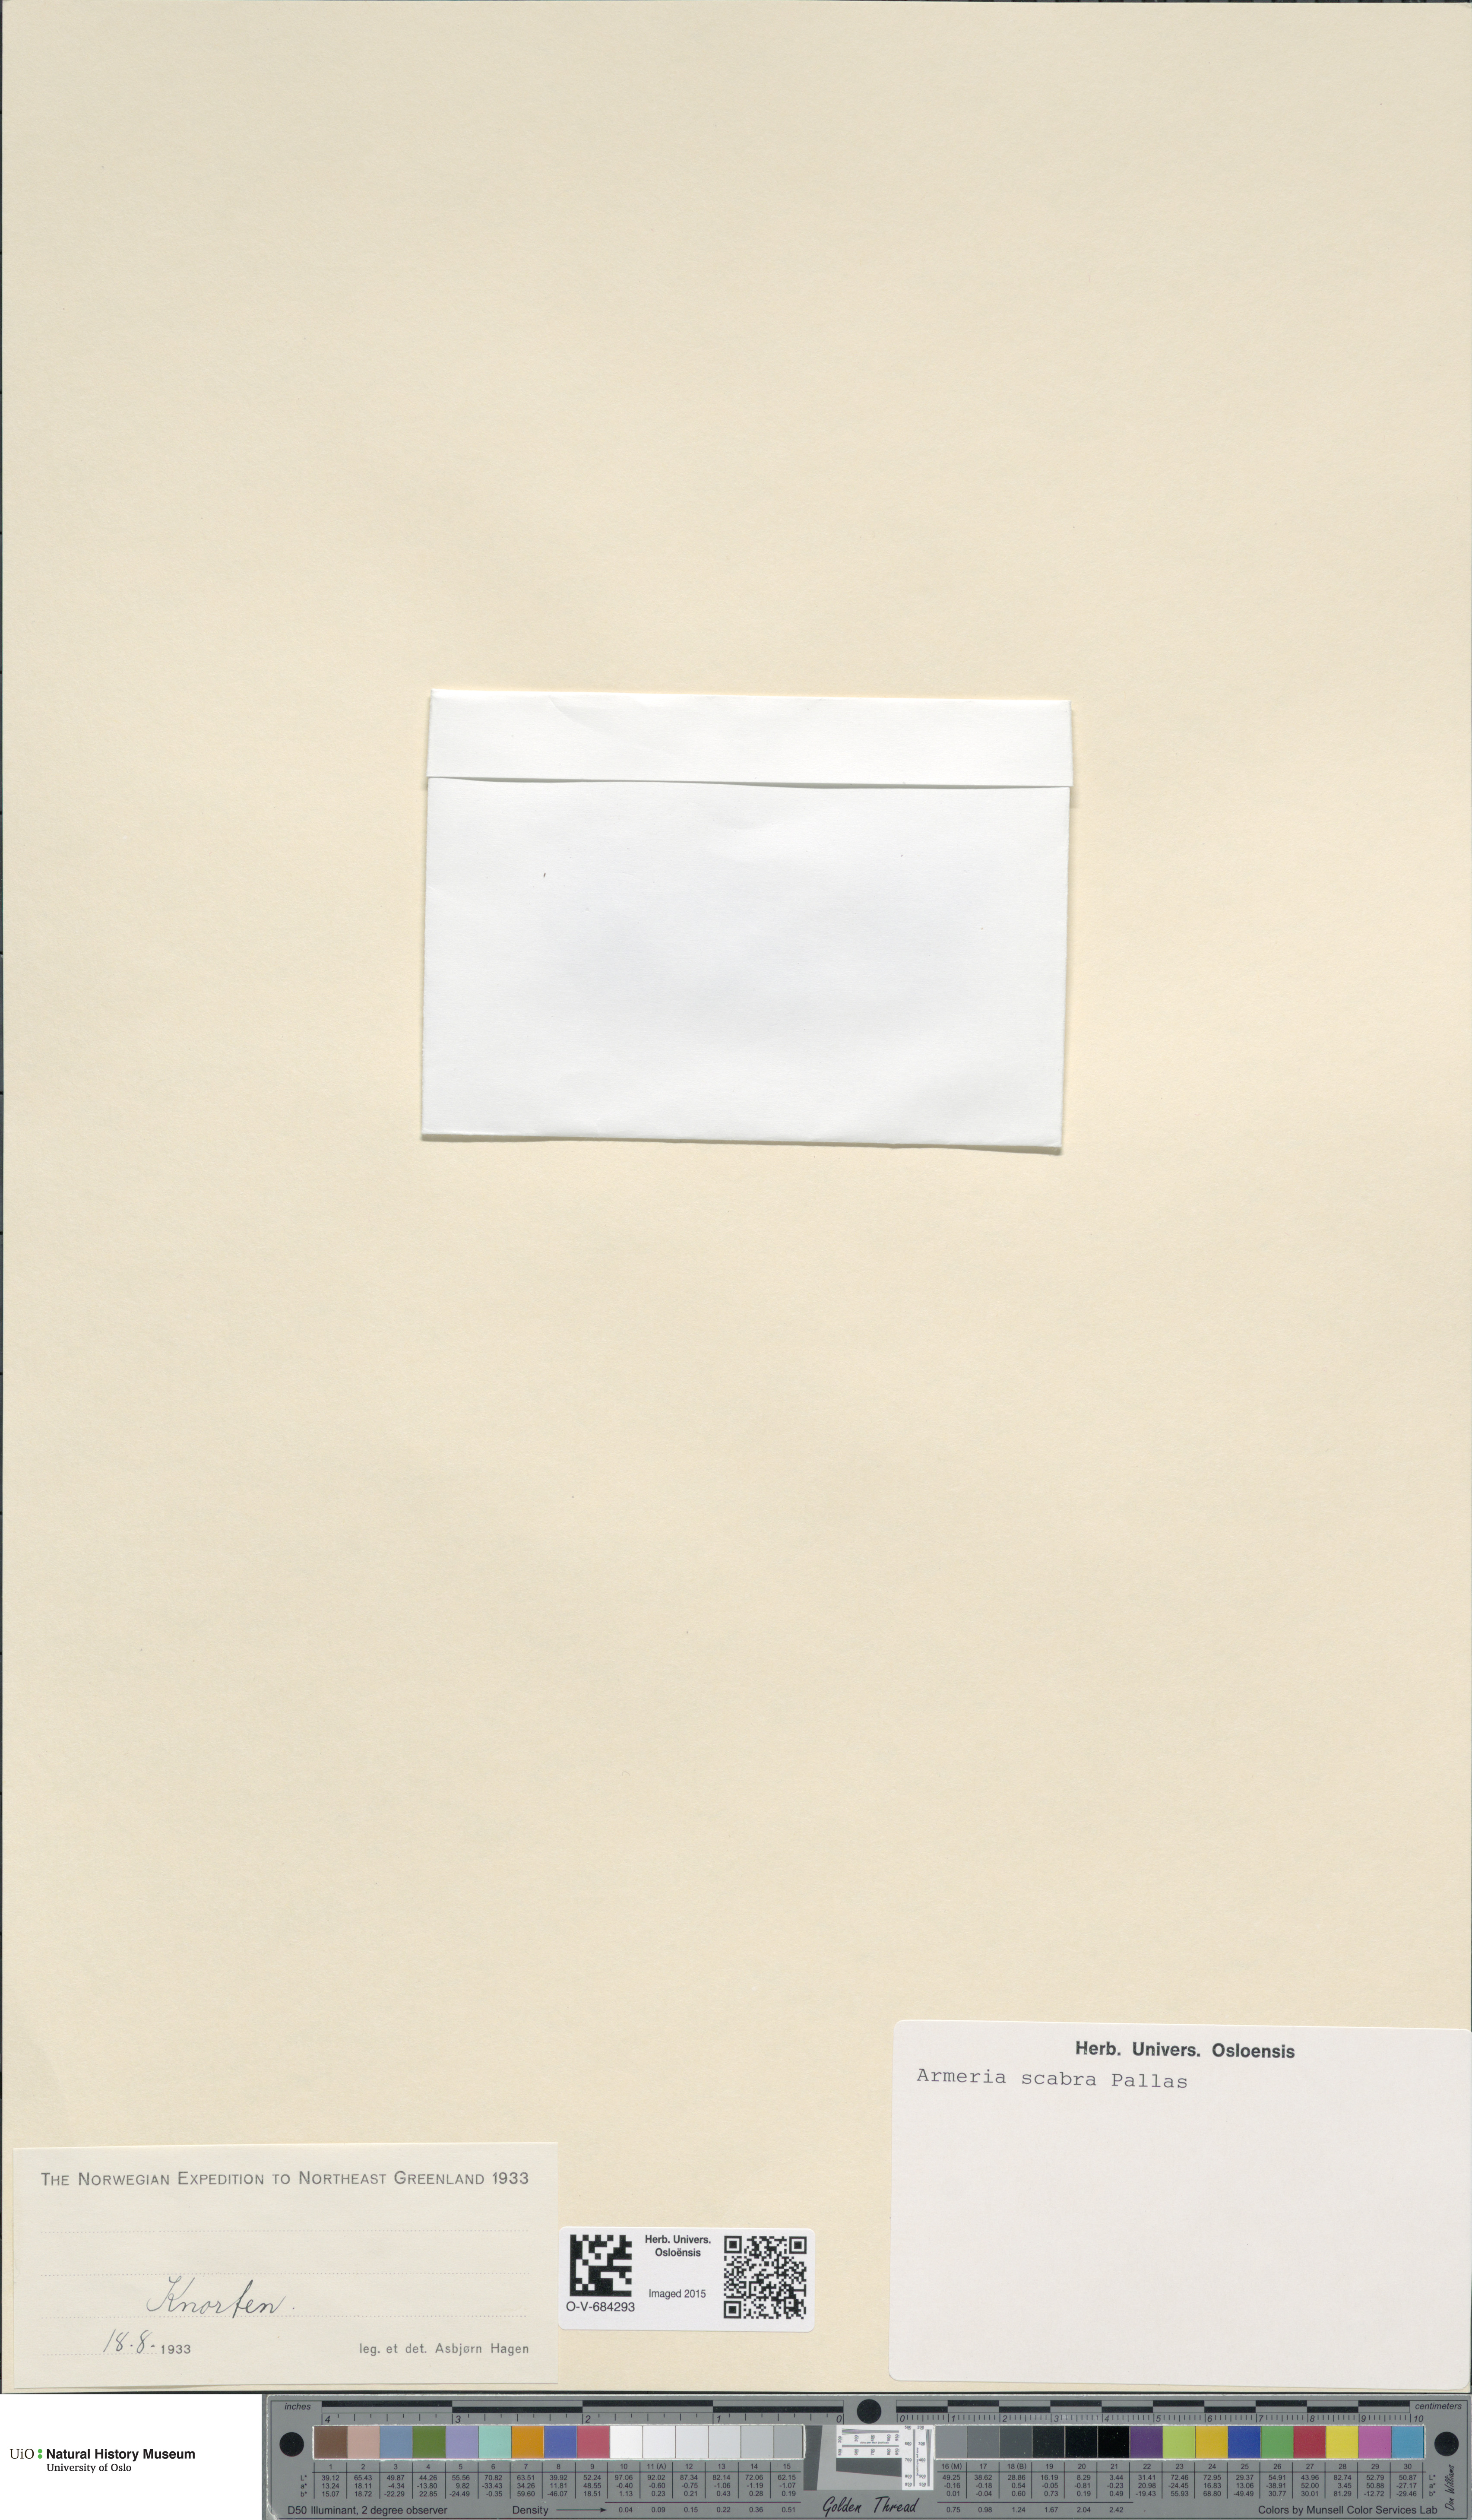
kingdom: Plantae
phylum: Tracheophyta
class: Magnoliopsida
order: Caryophyllales
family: Plumbaginaceae
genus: Armeria
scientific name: Armeria maritima
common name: Thrift
